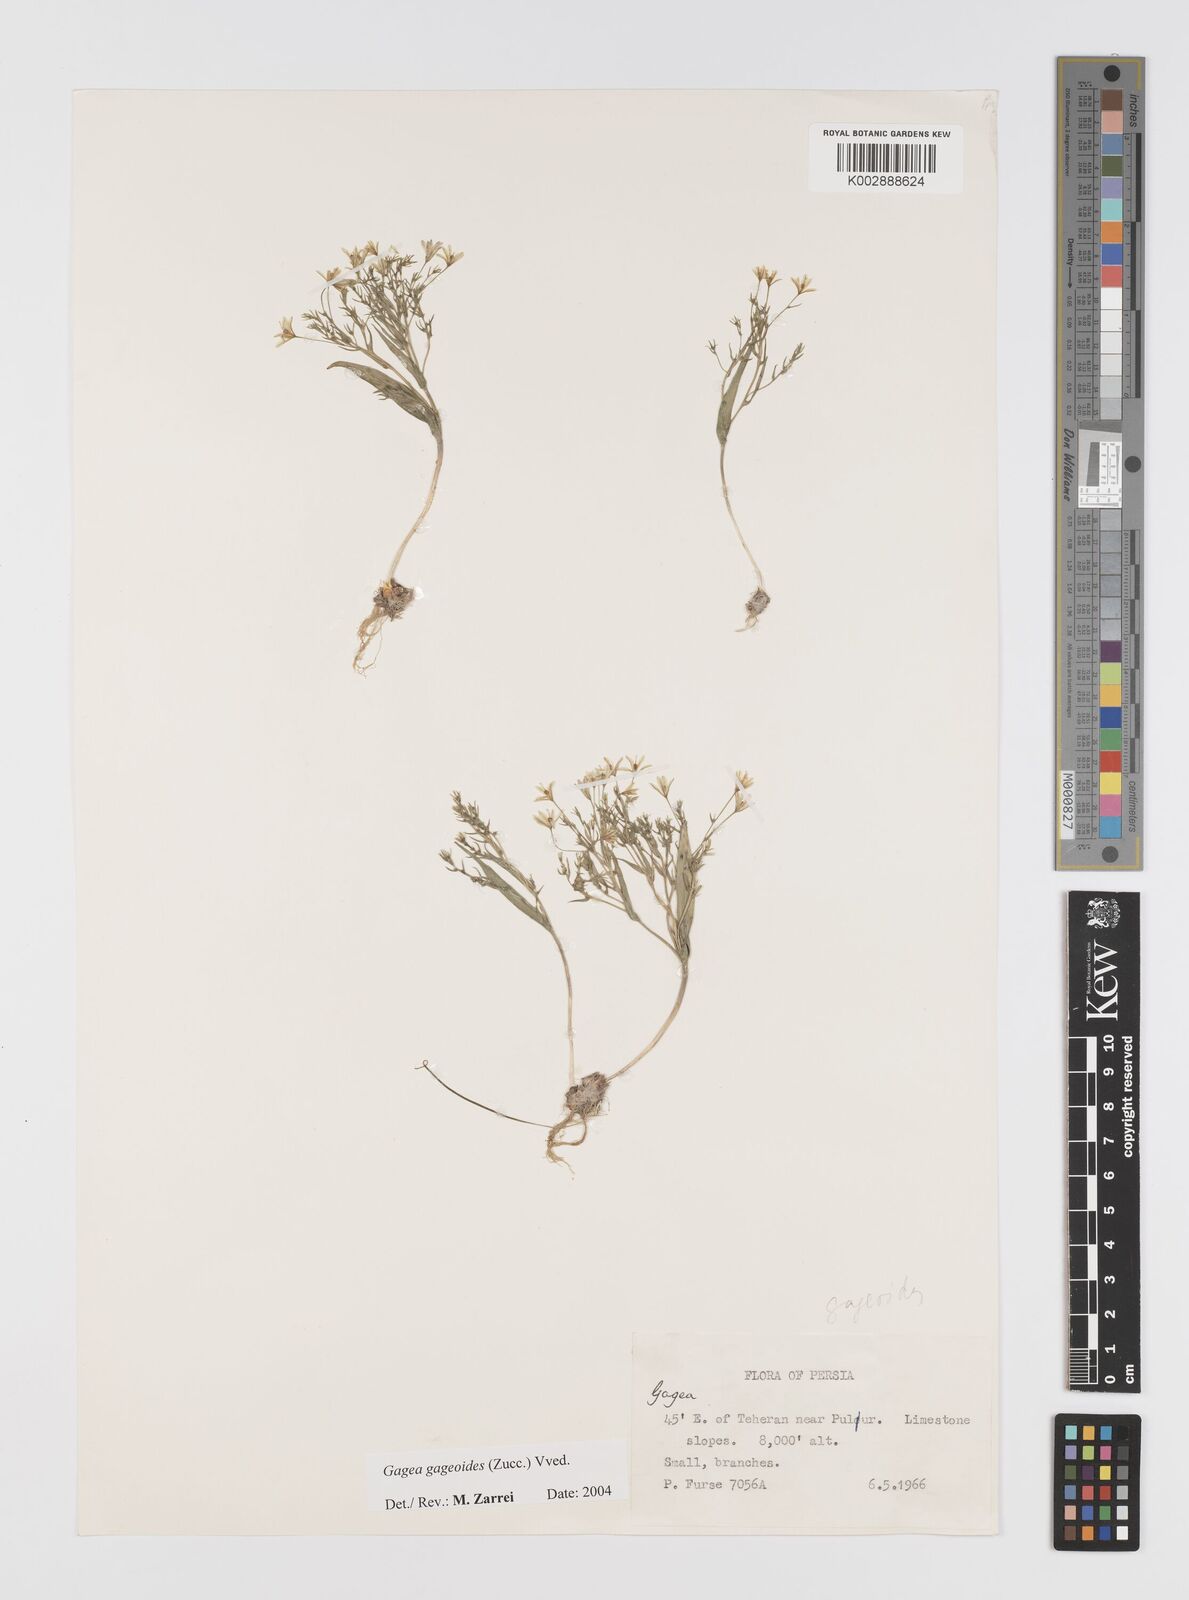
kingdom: Plantae
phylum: Tracheophyta
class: Liliopsida
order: Liliales
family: Liliaceae
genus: Gagea
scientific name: Gagea gageoides
